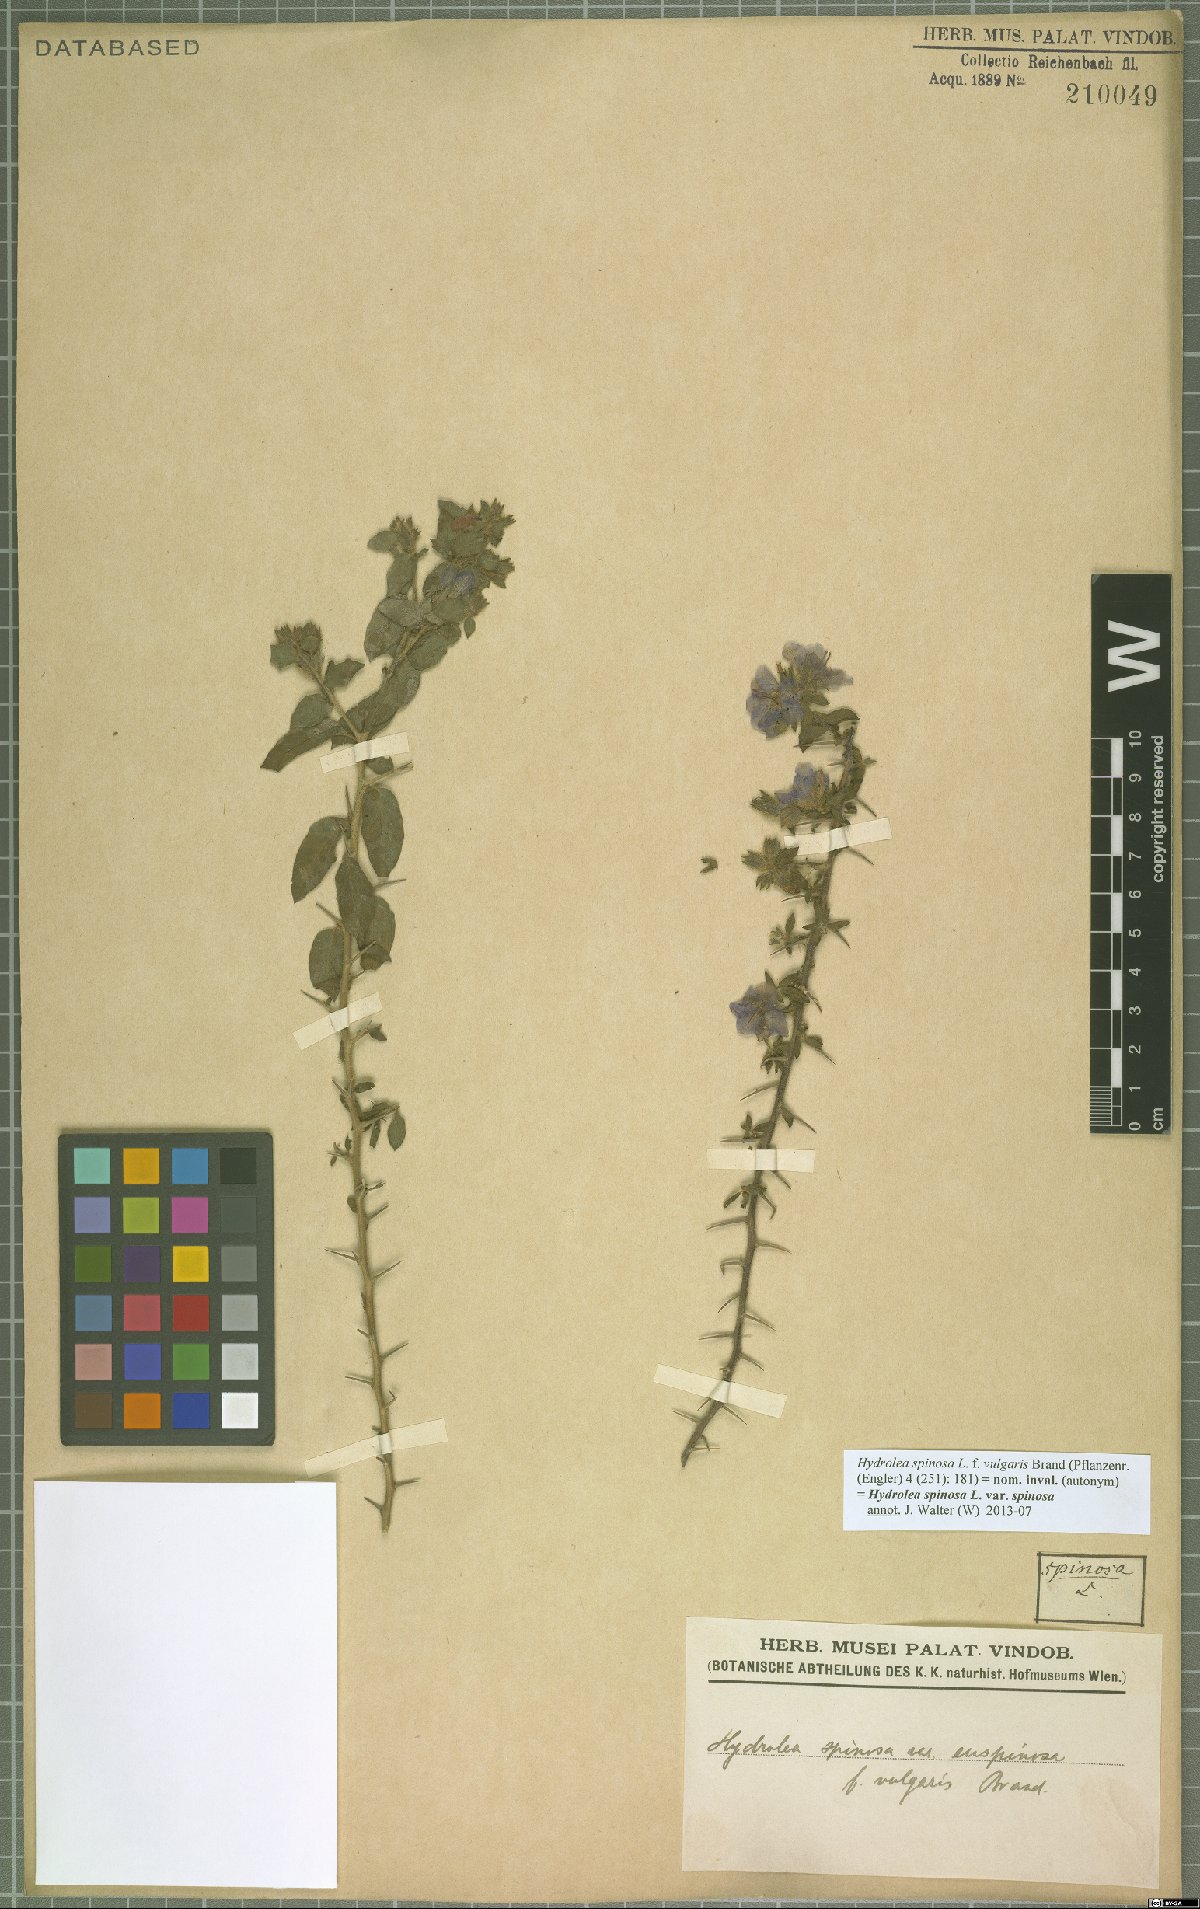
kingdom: Plantae
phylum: Tracheophyta
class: Magnoliopsida
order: Solanales
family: Hydroleaceae
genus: Hydrolea
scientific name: Hydrolea spinosa
